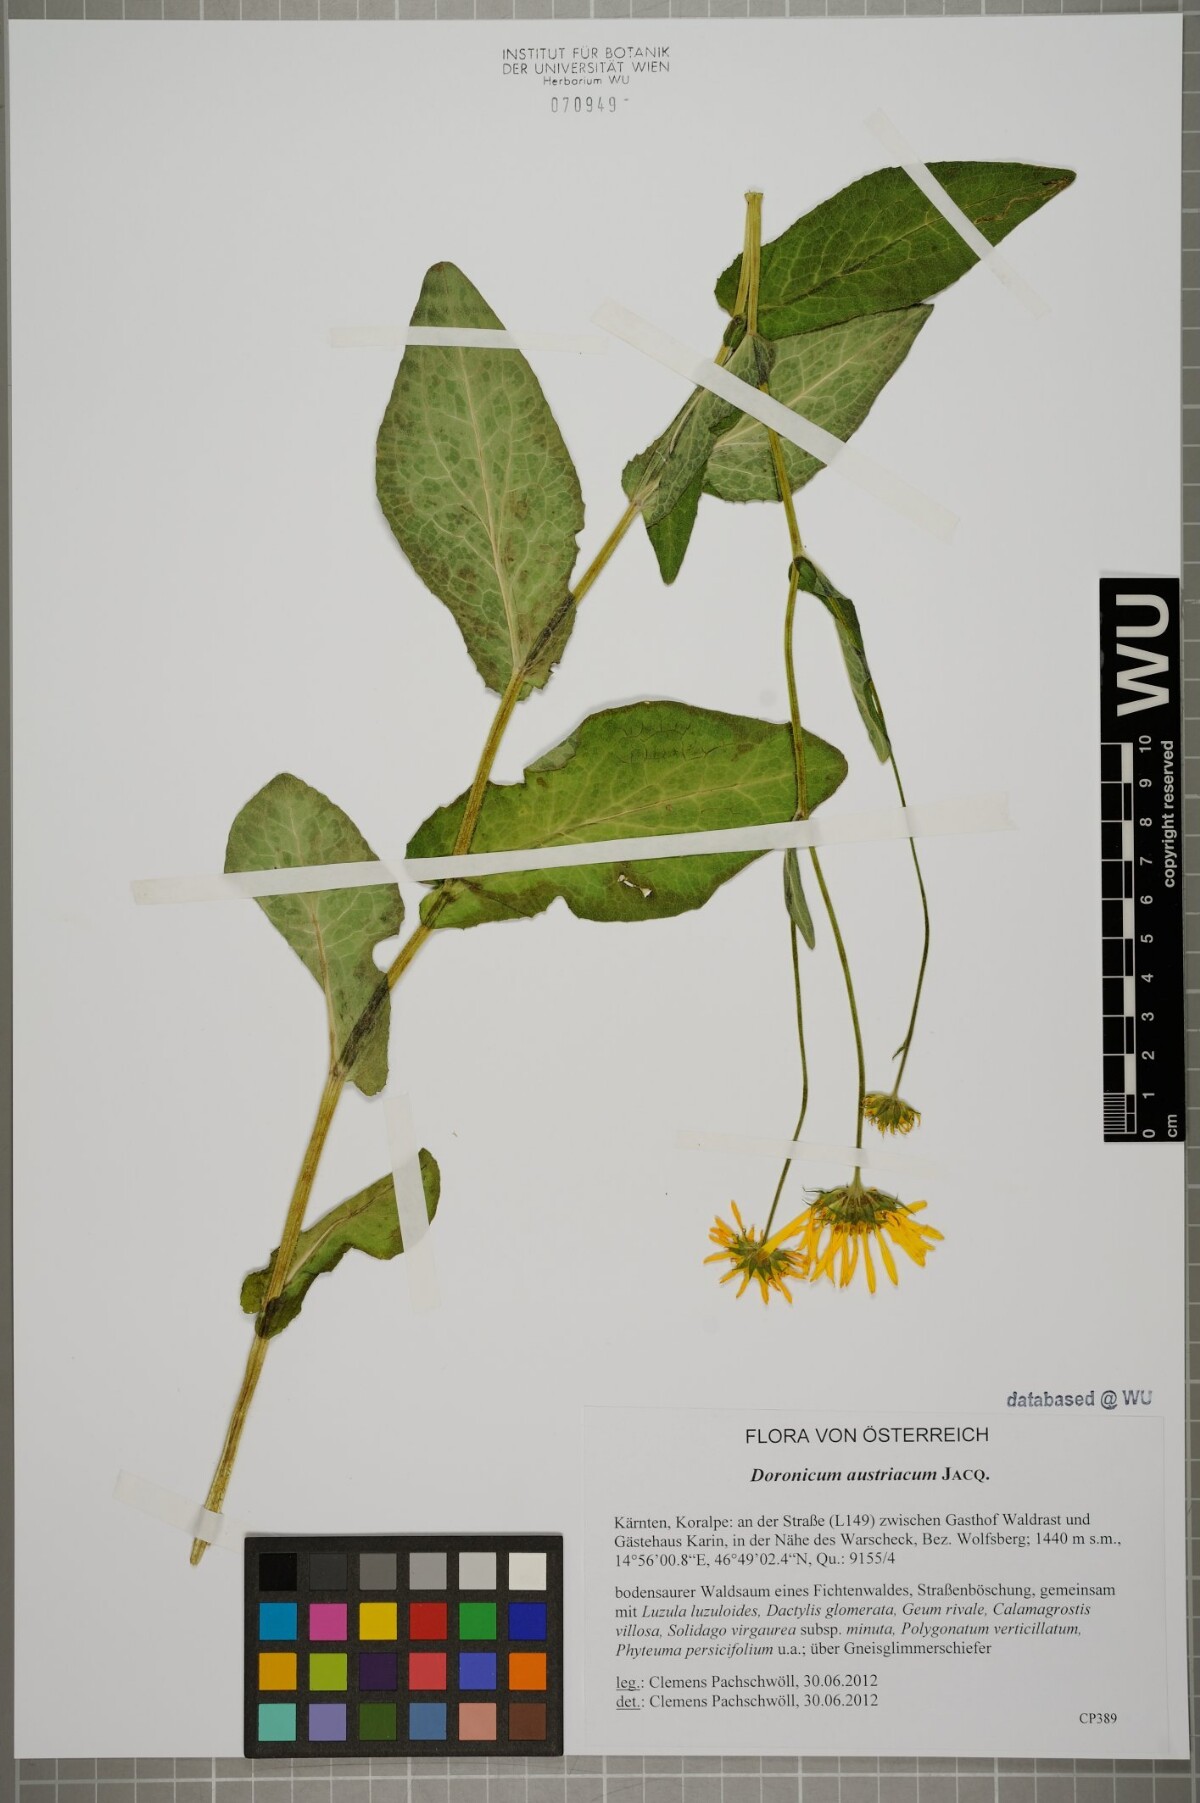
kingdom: Plantae
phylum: Tracheophyta
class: Magnoliopsida
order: Asterales
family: Asteraceae
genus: Doronicum
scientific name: Doronicum austriacum
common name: Austrian leopard's-bane
